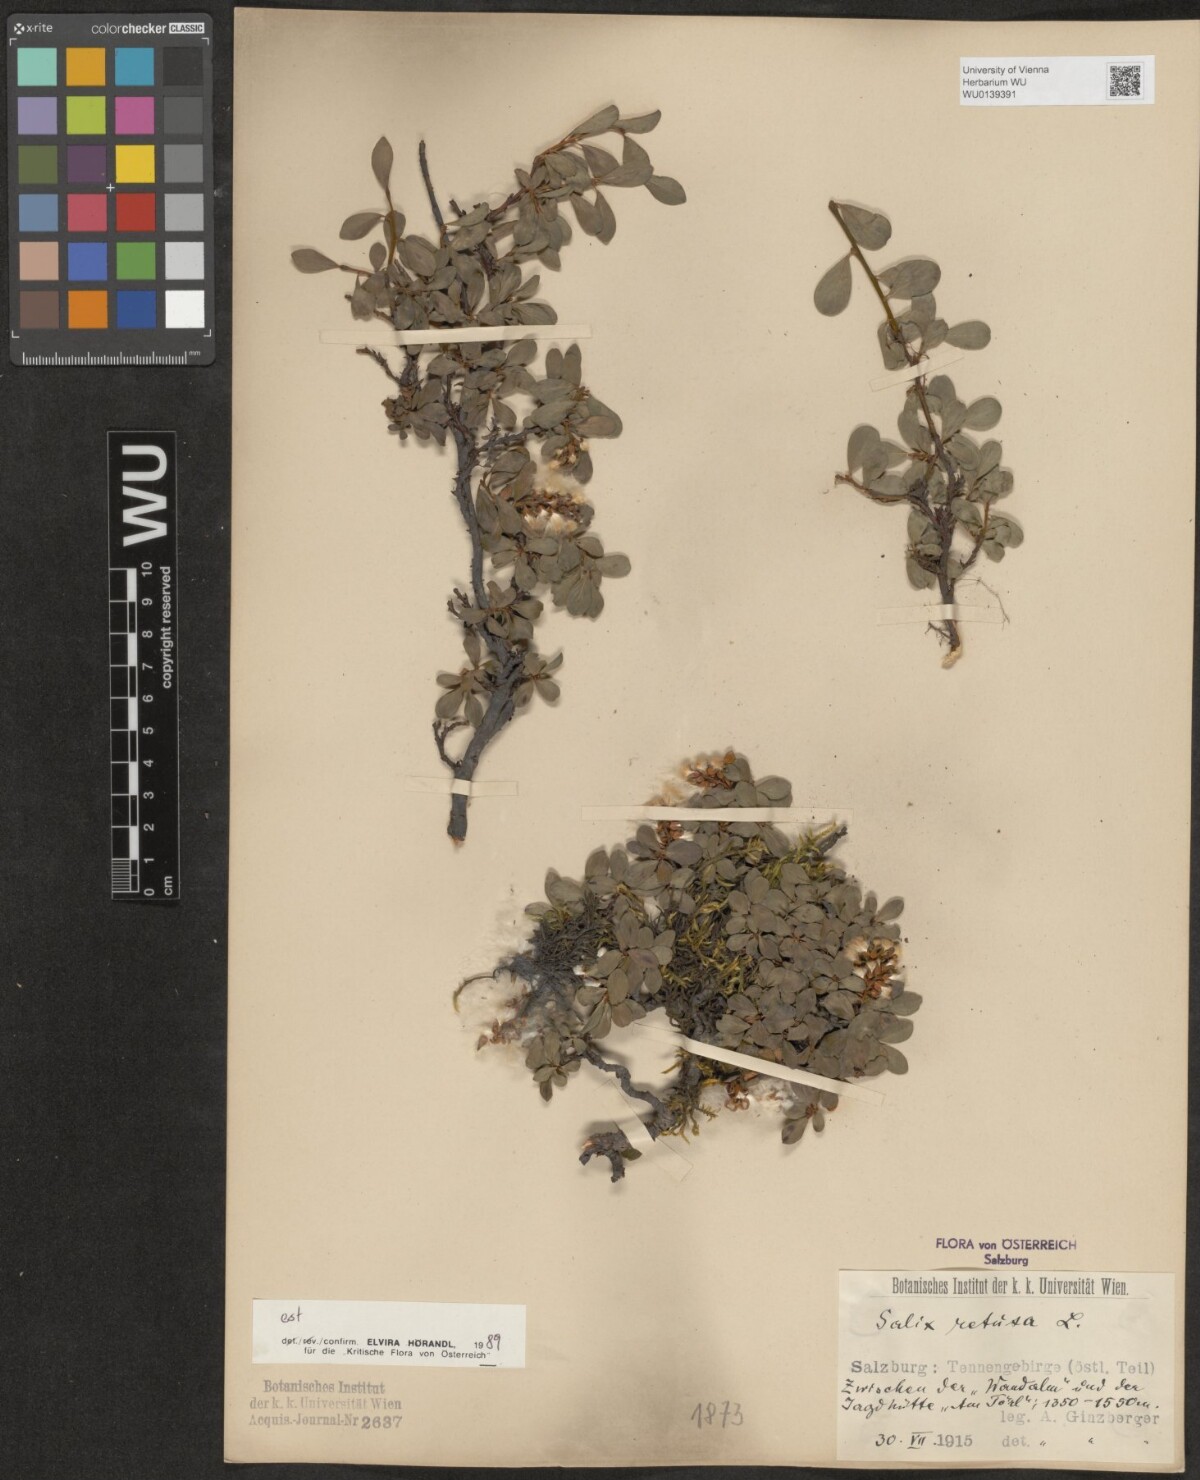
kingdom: Plantae
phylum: Tracheophyta
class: Magnoliopsida
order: Malpighiales
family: Salicaceae
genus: Salix
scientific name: Salix retusa
